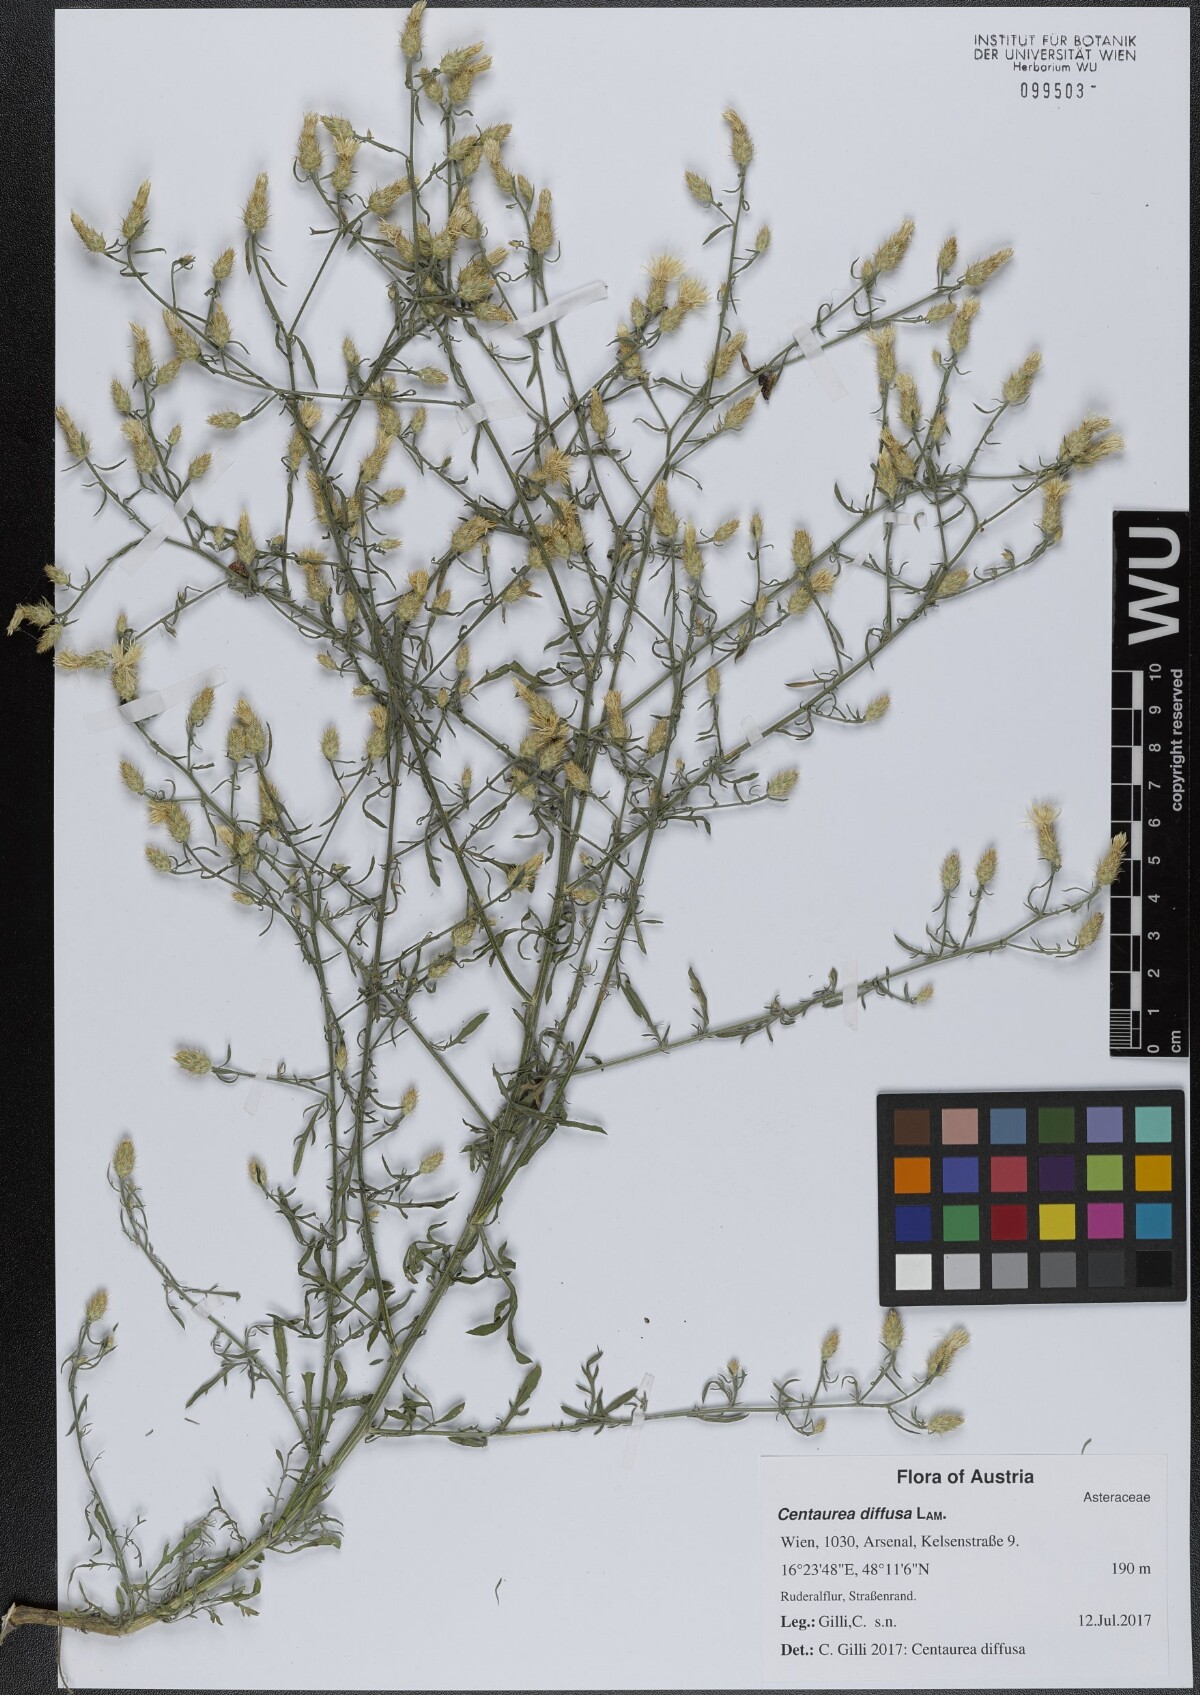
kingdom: Plantae
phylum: Tracheophyta
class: Magnoliopsida
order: Asterales
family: Asteraceae
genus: Centaurea
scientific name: Centaurea diffusa
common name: Diffuse knapweed
